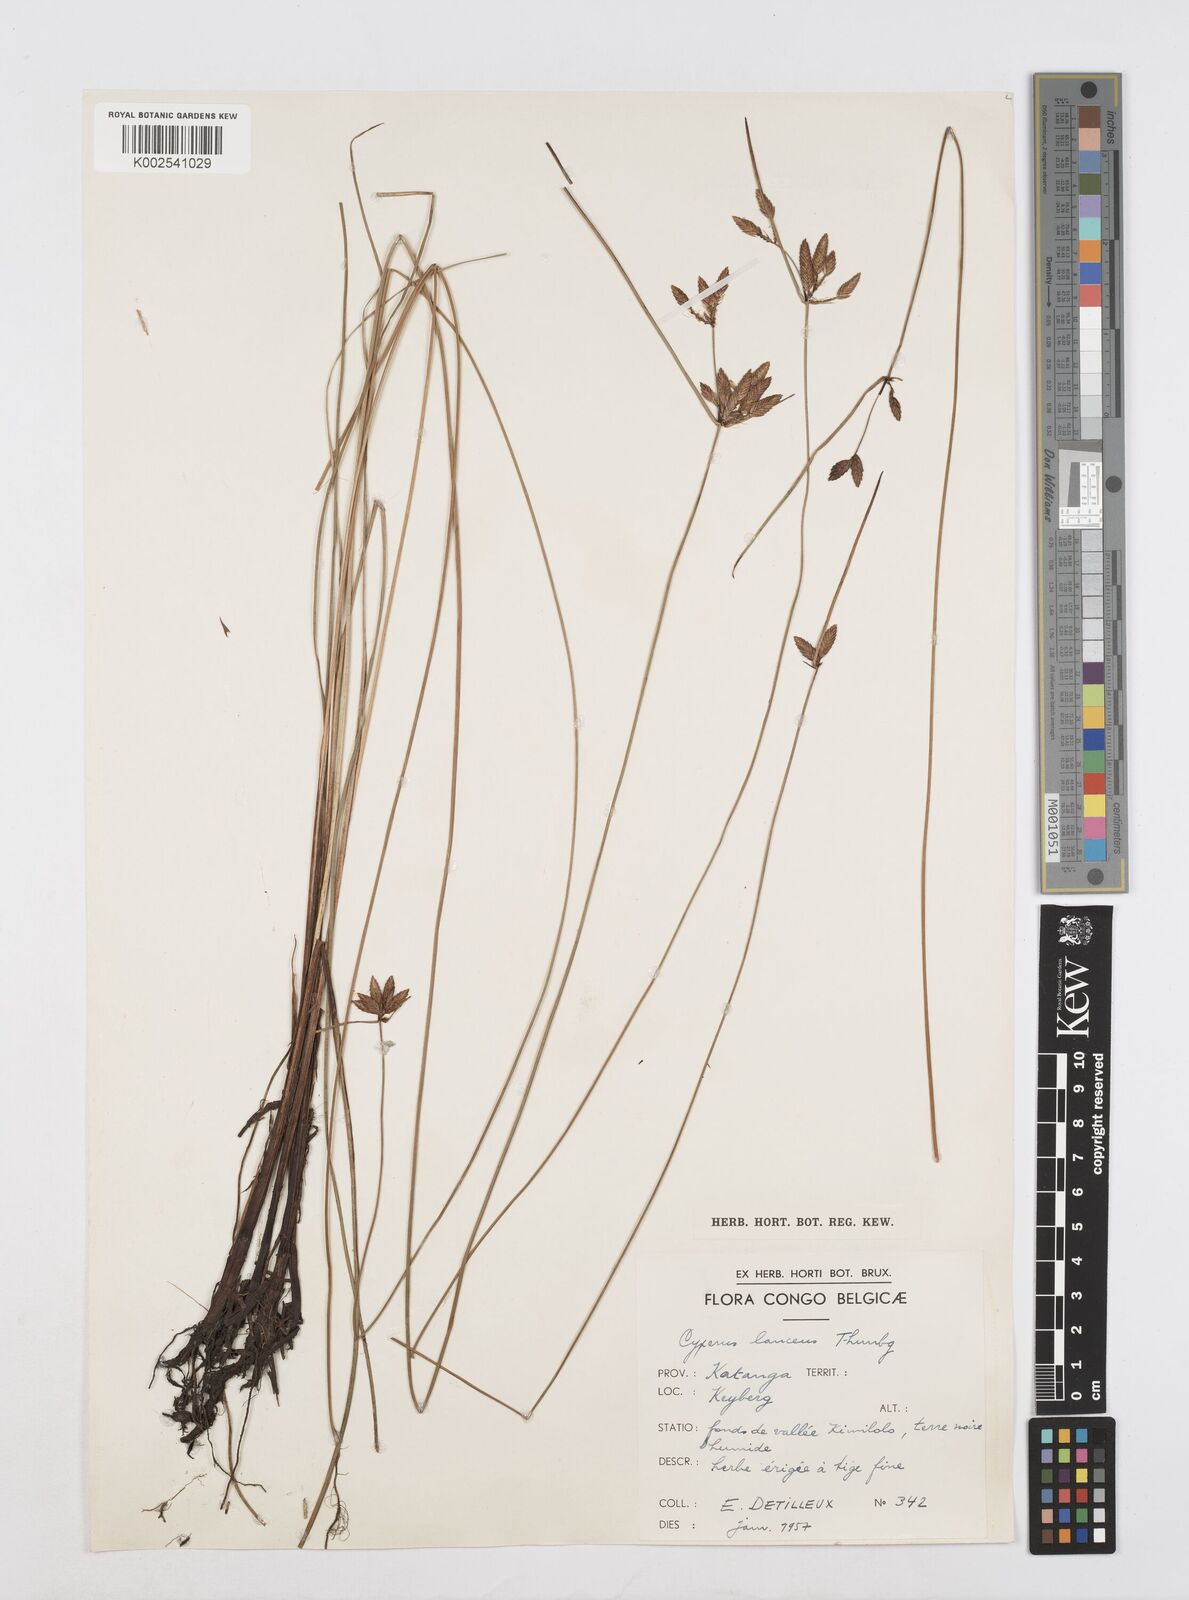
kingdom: Plantae
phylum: Tracheophyta
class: Liliopsida
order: Poales
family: Cyperaceae
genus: Cyperus
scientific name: Cyperus
